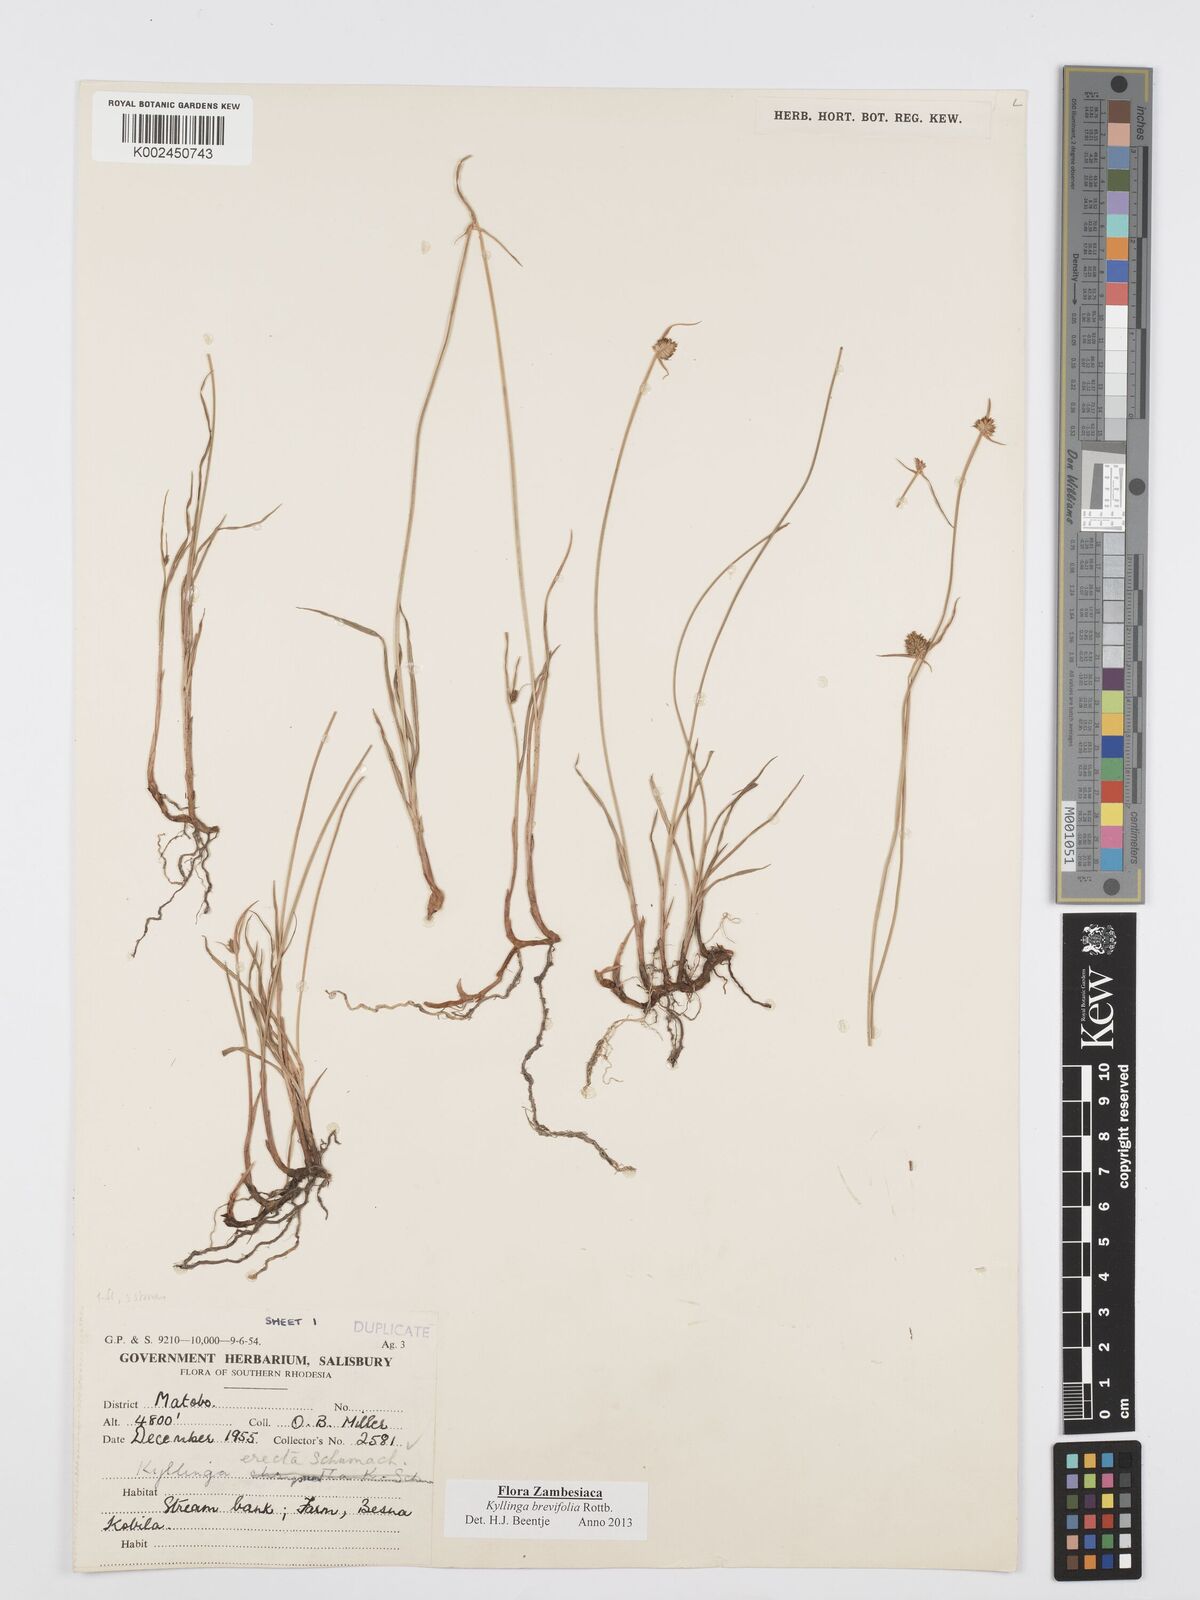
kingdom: Plantae
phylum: Tracheophyta
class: Liliopsida
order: Poales
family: Cyperaceae
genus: Cyperus
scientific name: Cyperus brevifolius
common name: Globe kyllinga
